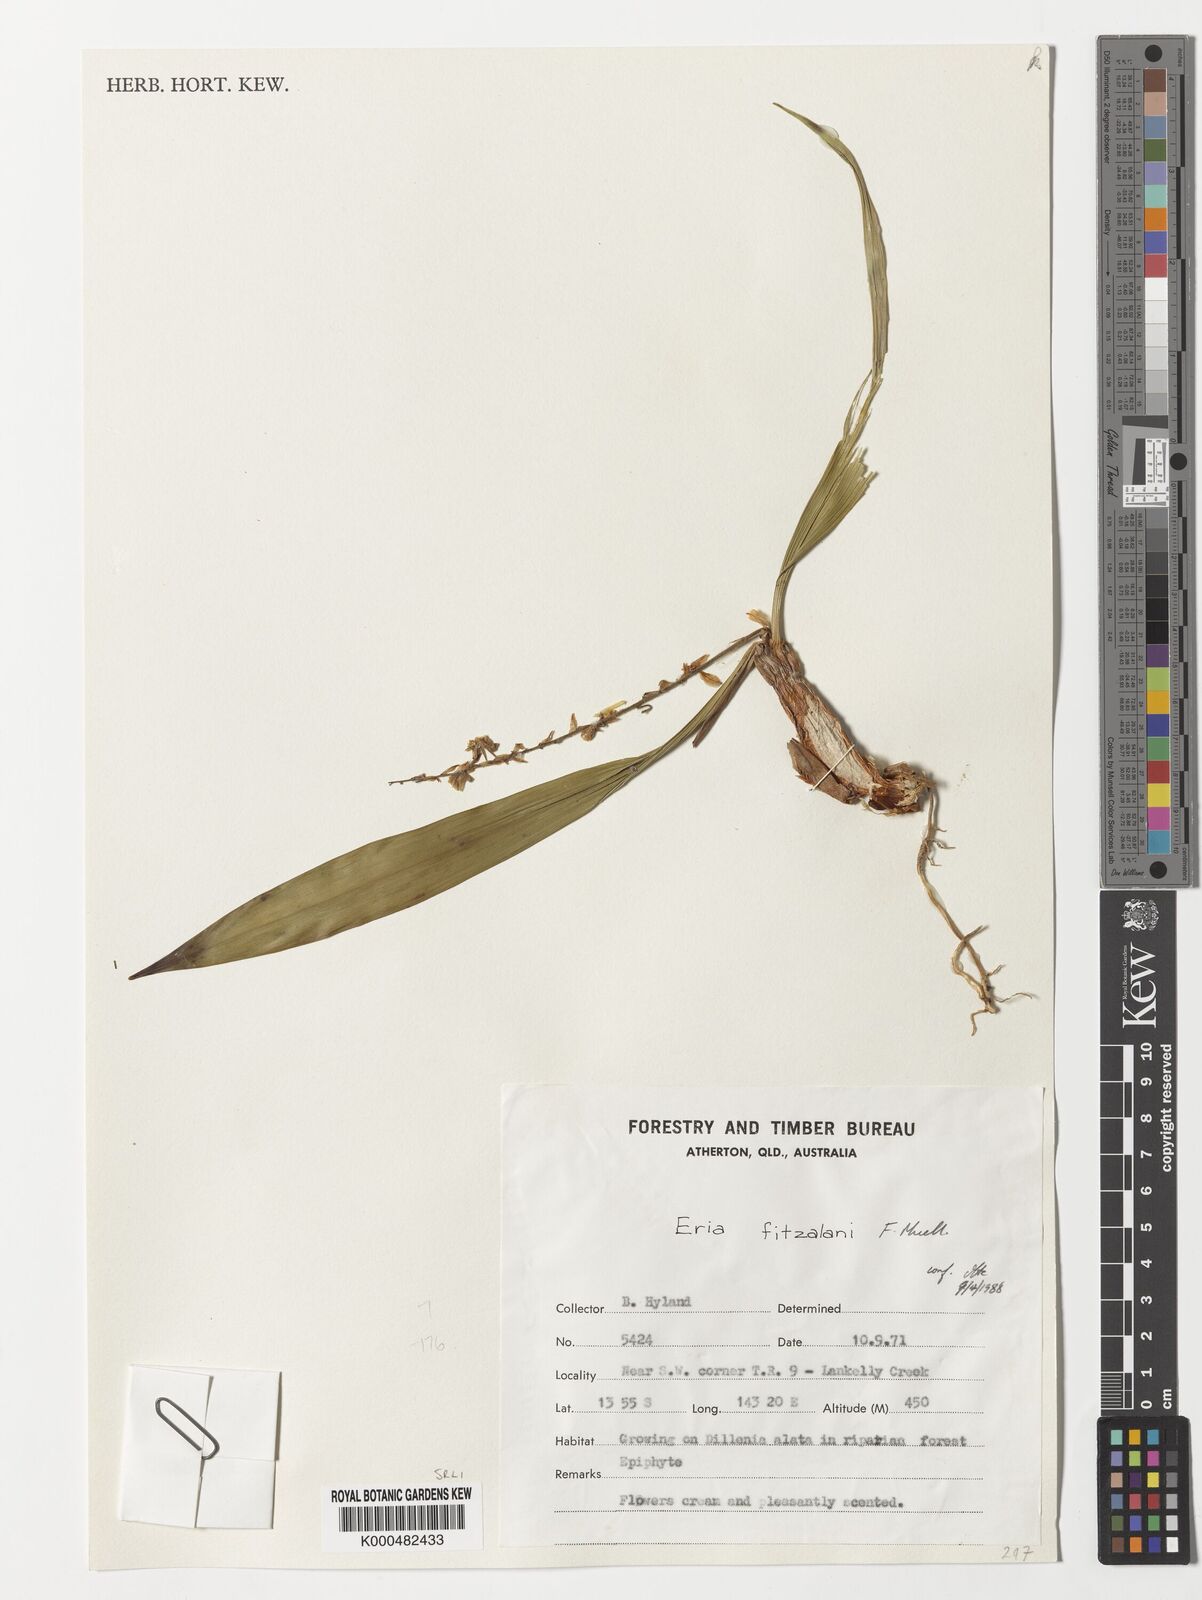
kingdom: Plantae
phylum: Tracheophyta
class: Liliopsida
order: Asparagales
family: Orchidaceae
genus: Pinalia
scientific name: Pinalia fitzalanii
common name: Common fuzz orchid
